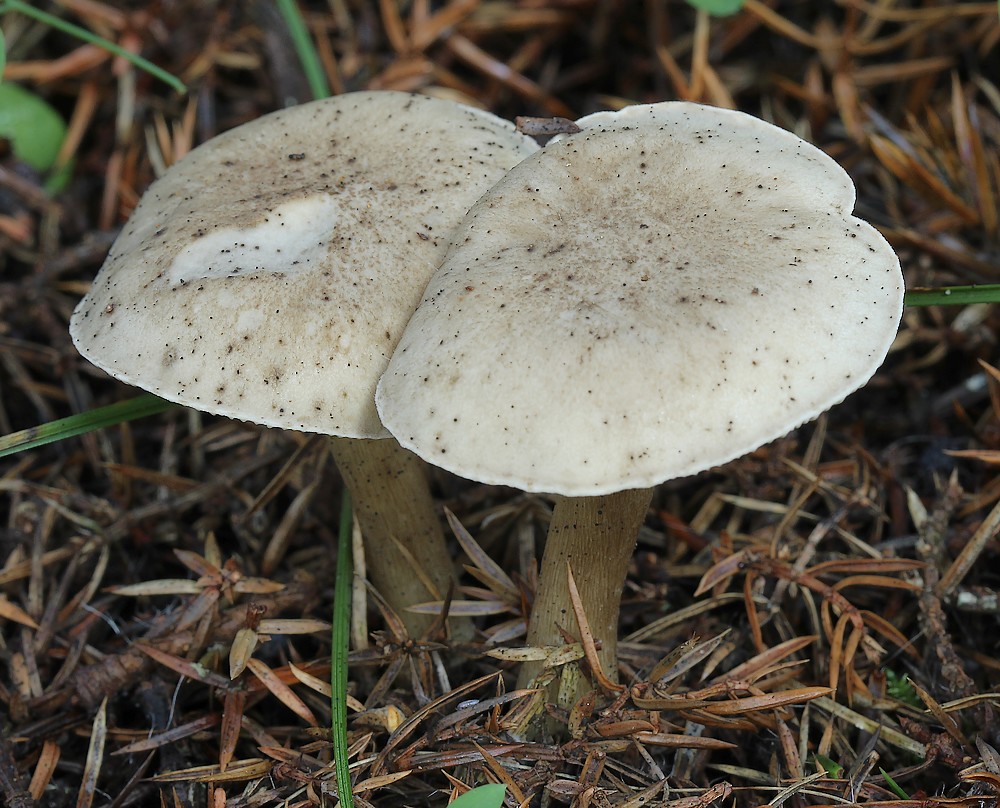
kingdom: Fungi
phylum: Basidiomycota
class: Agaricomycetes
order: Agaricales
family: Hygrophoraceae
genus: Ampulloclitocybe
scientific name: Ampulloclitocybe clavipes
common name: køllefod
